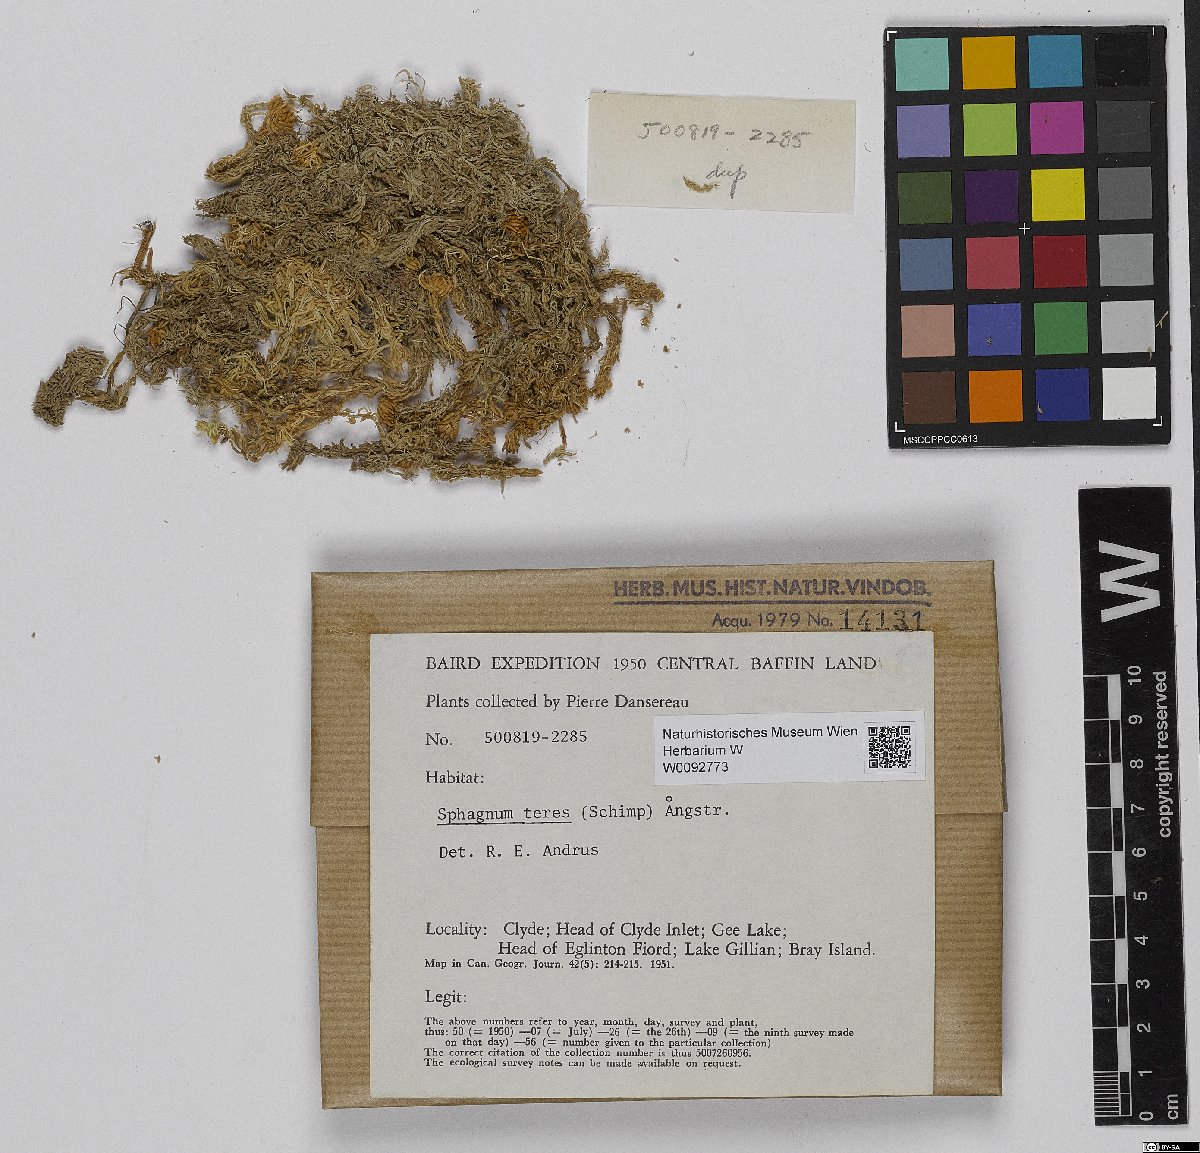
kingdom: Plantae
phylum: Bryophyta
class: Sphagnopsida
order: Sphagnales
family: Sphagnaceae
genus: Sphagnum
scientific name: Sphagnum teres
